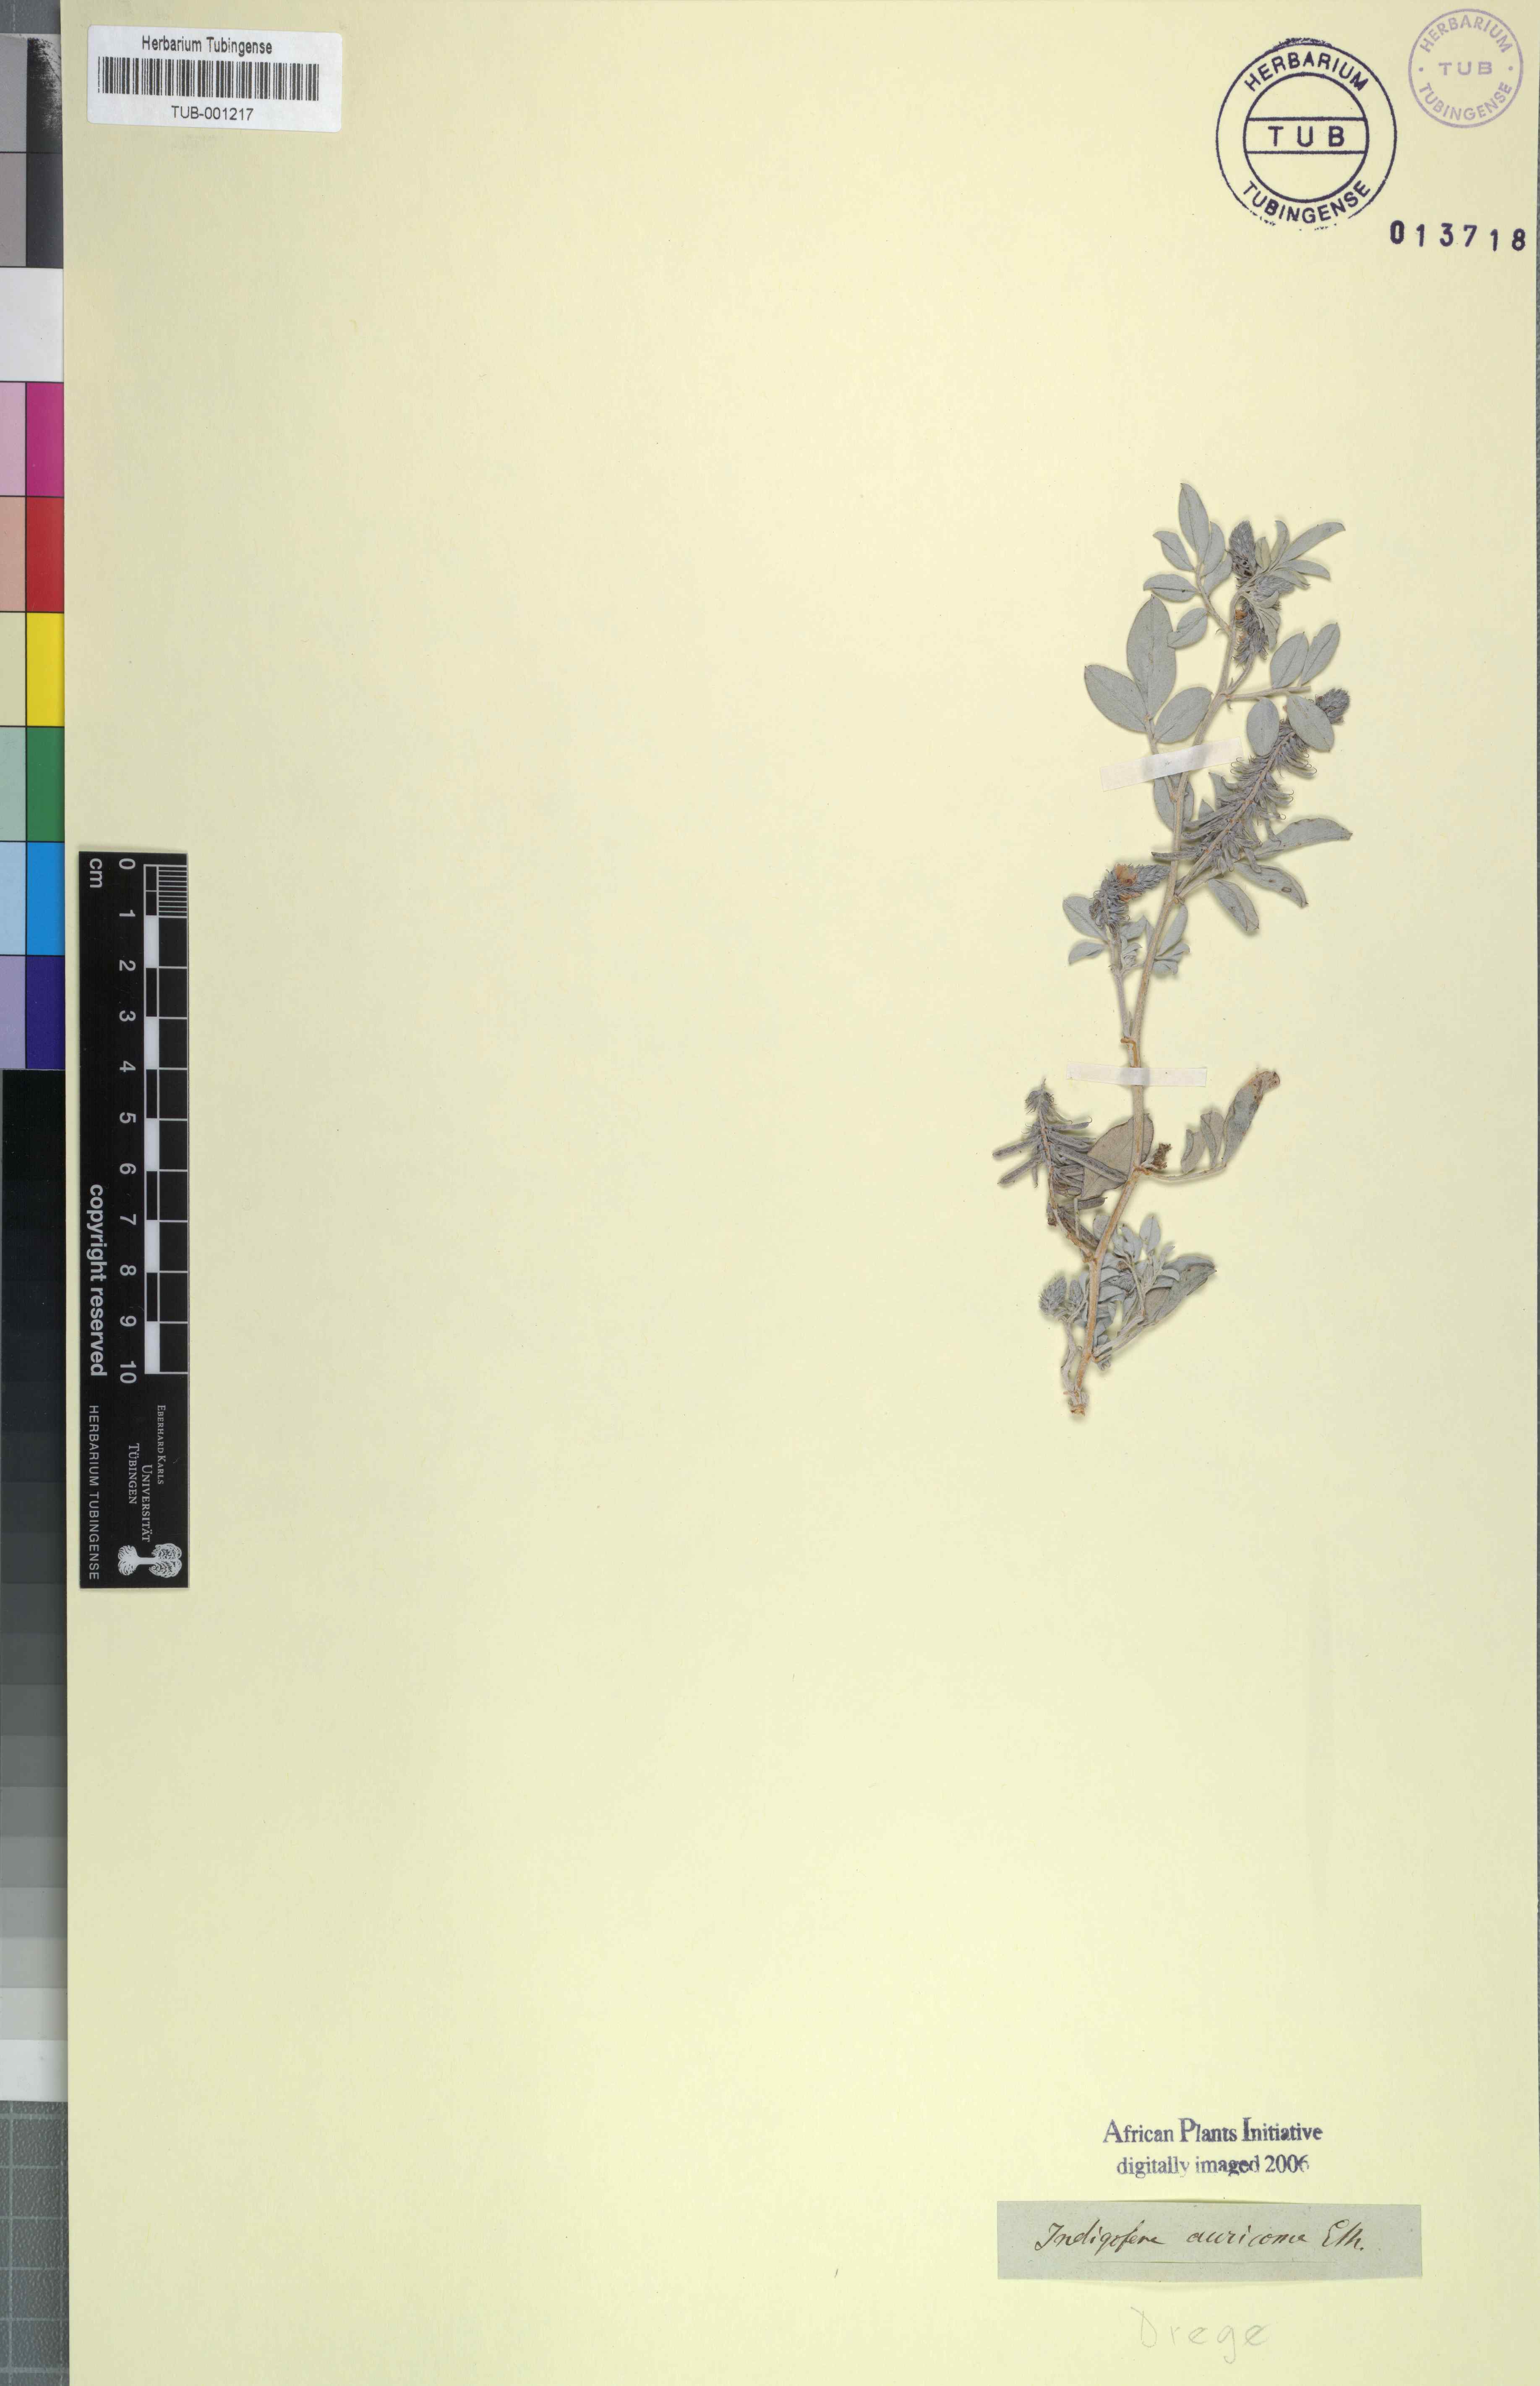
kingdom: Plantae
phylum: Tracheophyta
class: Magnoliopsida
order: Fabales
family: Fabaceae
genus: Indigofera
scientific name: Indigofera auricoma
